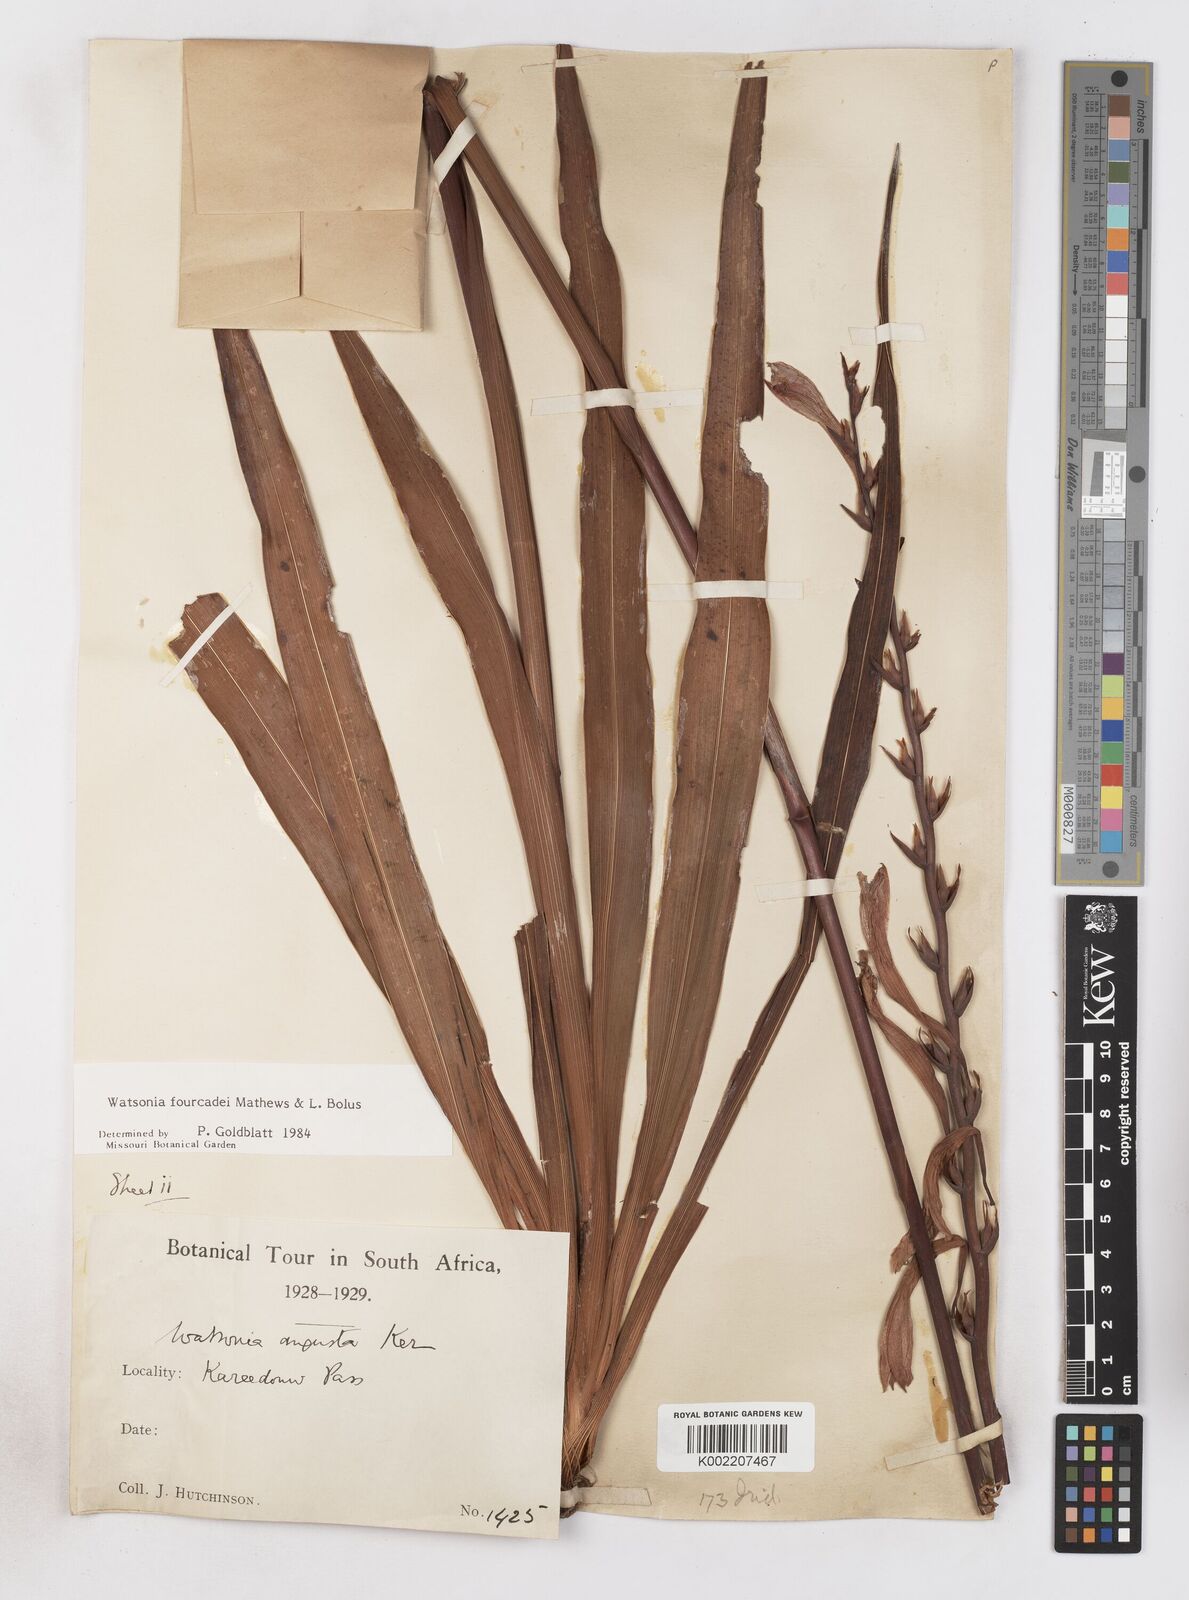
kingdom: Plantae
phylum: Tracheophyta
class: Liliopsida
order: Asparagales
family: Iridaceae
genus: Watsonia
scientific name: Watsonia fourcadei
